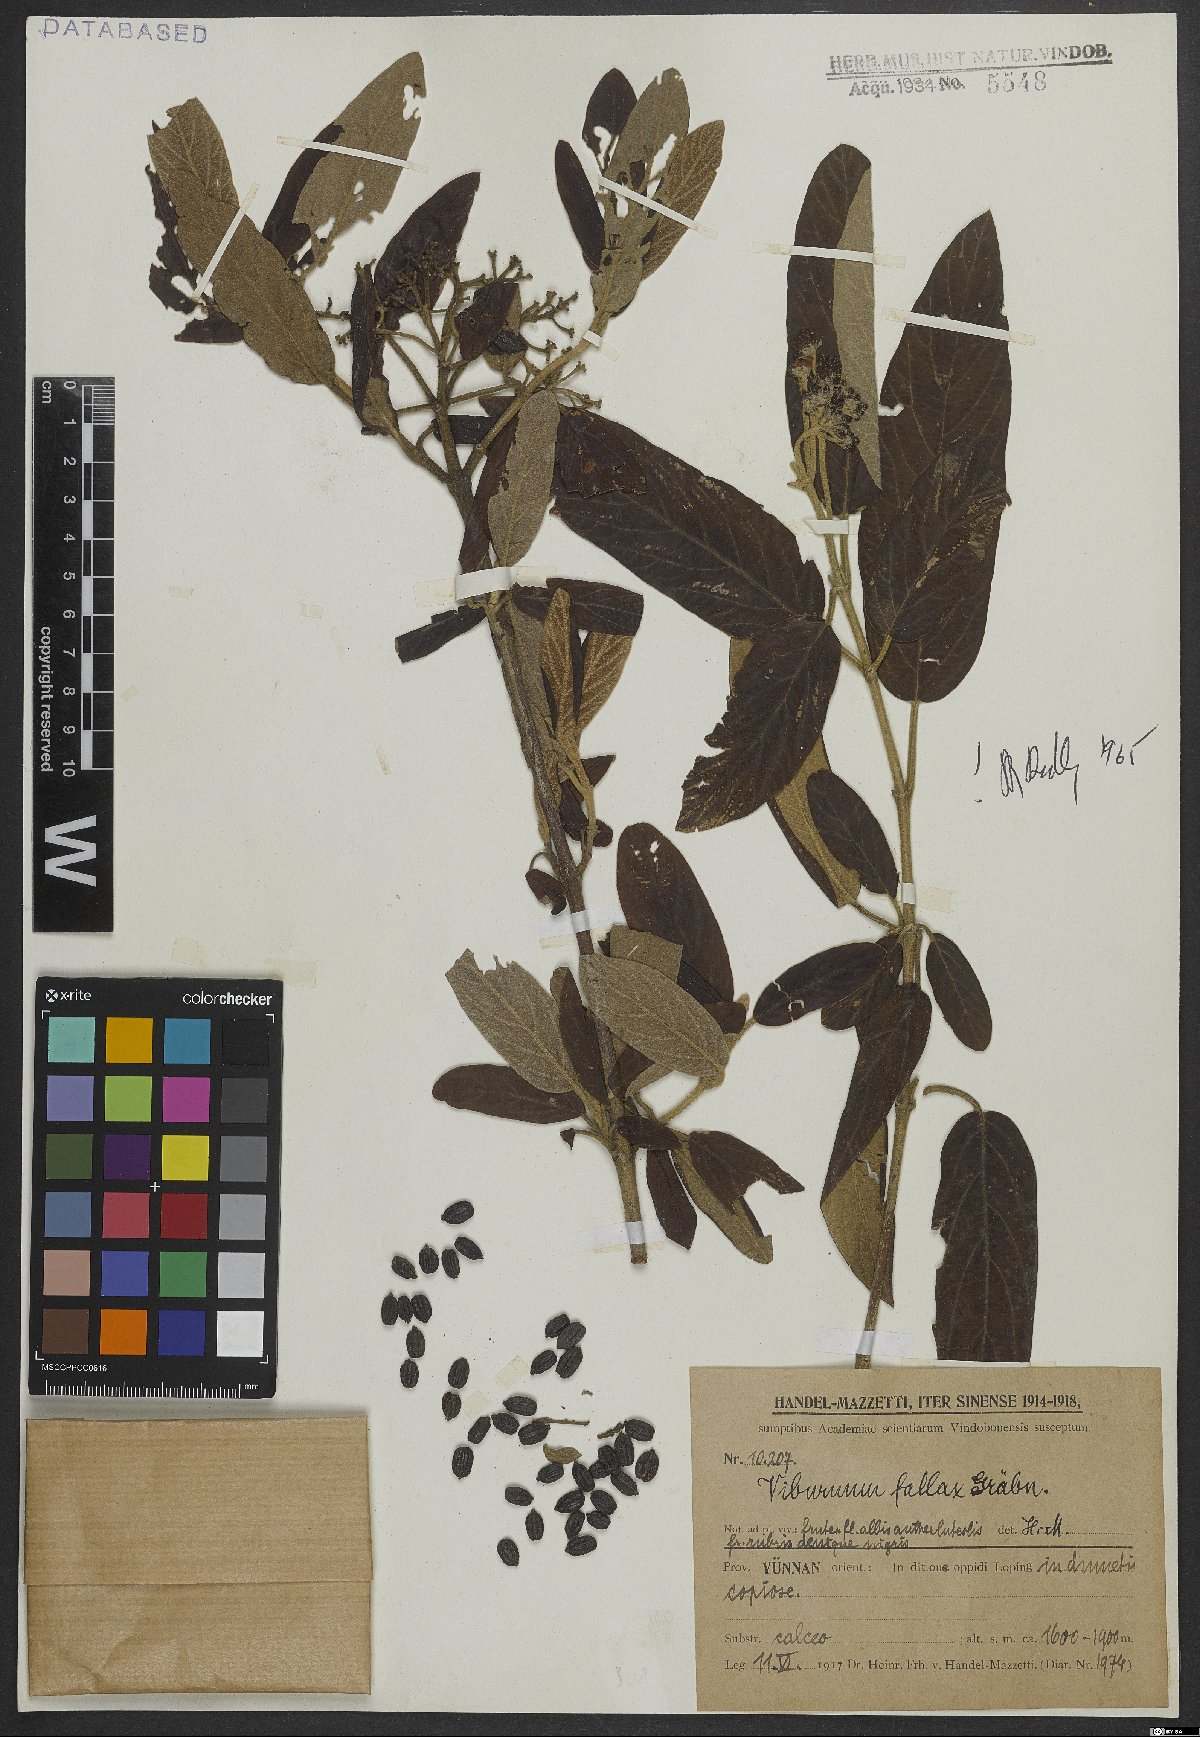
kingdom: Plantae
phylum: Tracheophyta
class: Magnoliopsida
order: Dipsacales
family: Viburnaceae
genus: Viburnum
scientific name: Viburnum utile
